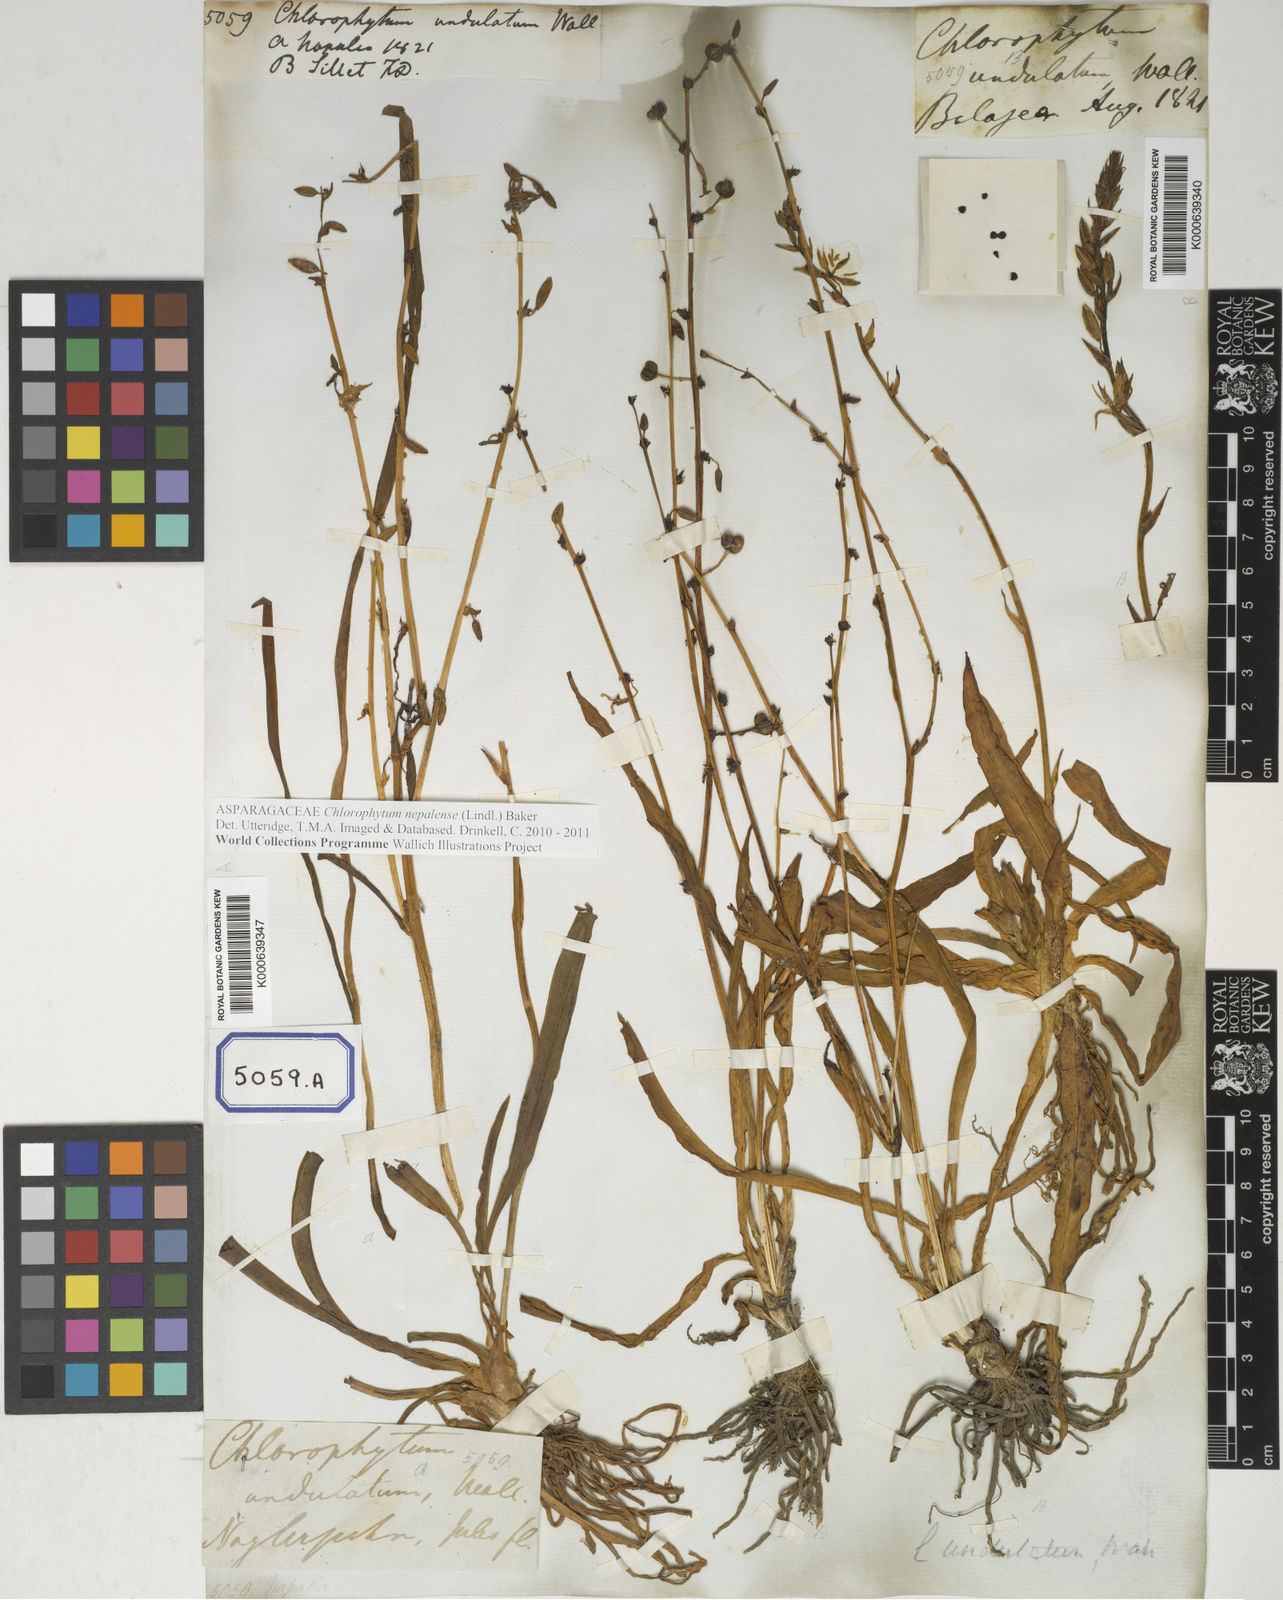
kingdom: Plantae
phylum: Tracheophyta
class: Liliopsida
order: Asparagales
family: Asparagaceae
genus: Chlorophytum
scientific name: Chlorophytum
